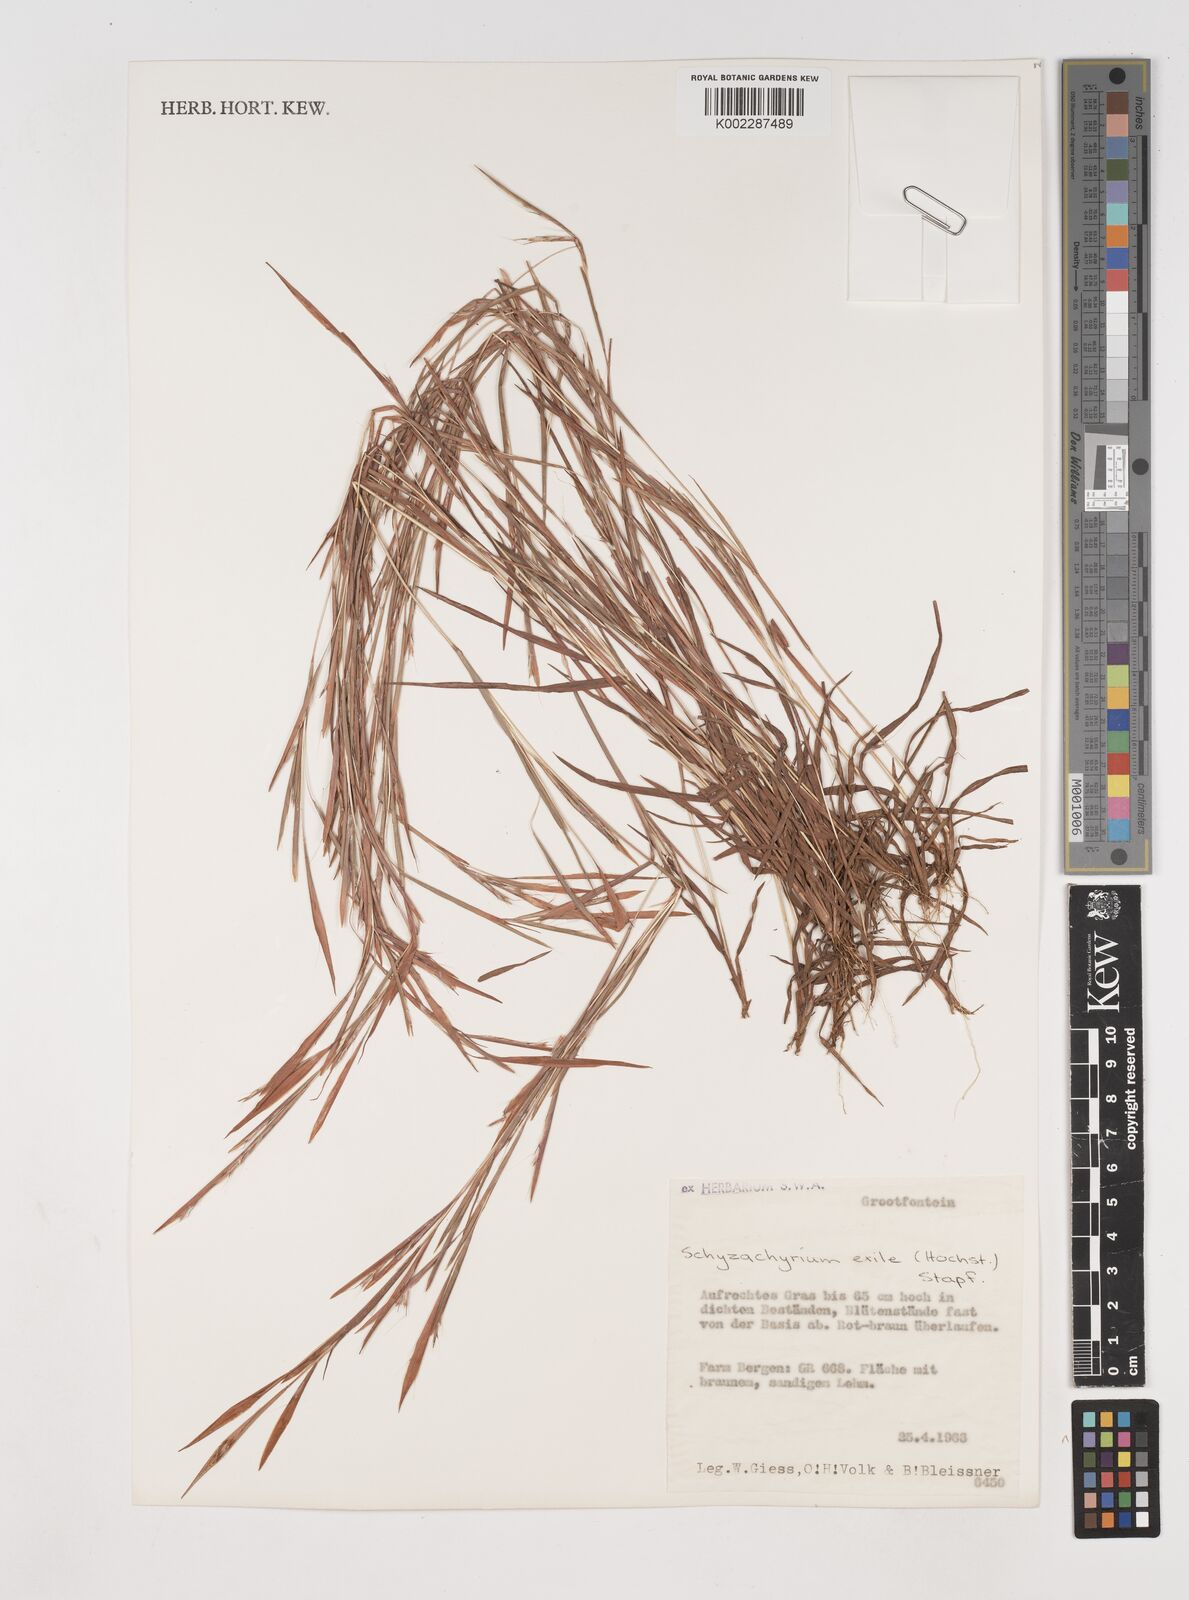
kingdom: Plantae
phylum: Tracheophyta
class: Liliopsida
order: Poales
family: Poaceae
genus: Schizachyrium
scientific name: Schizachyrium exile
